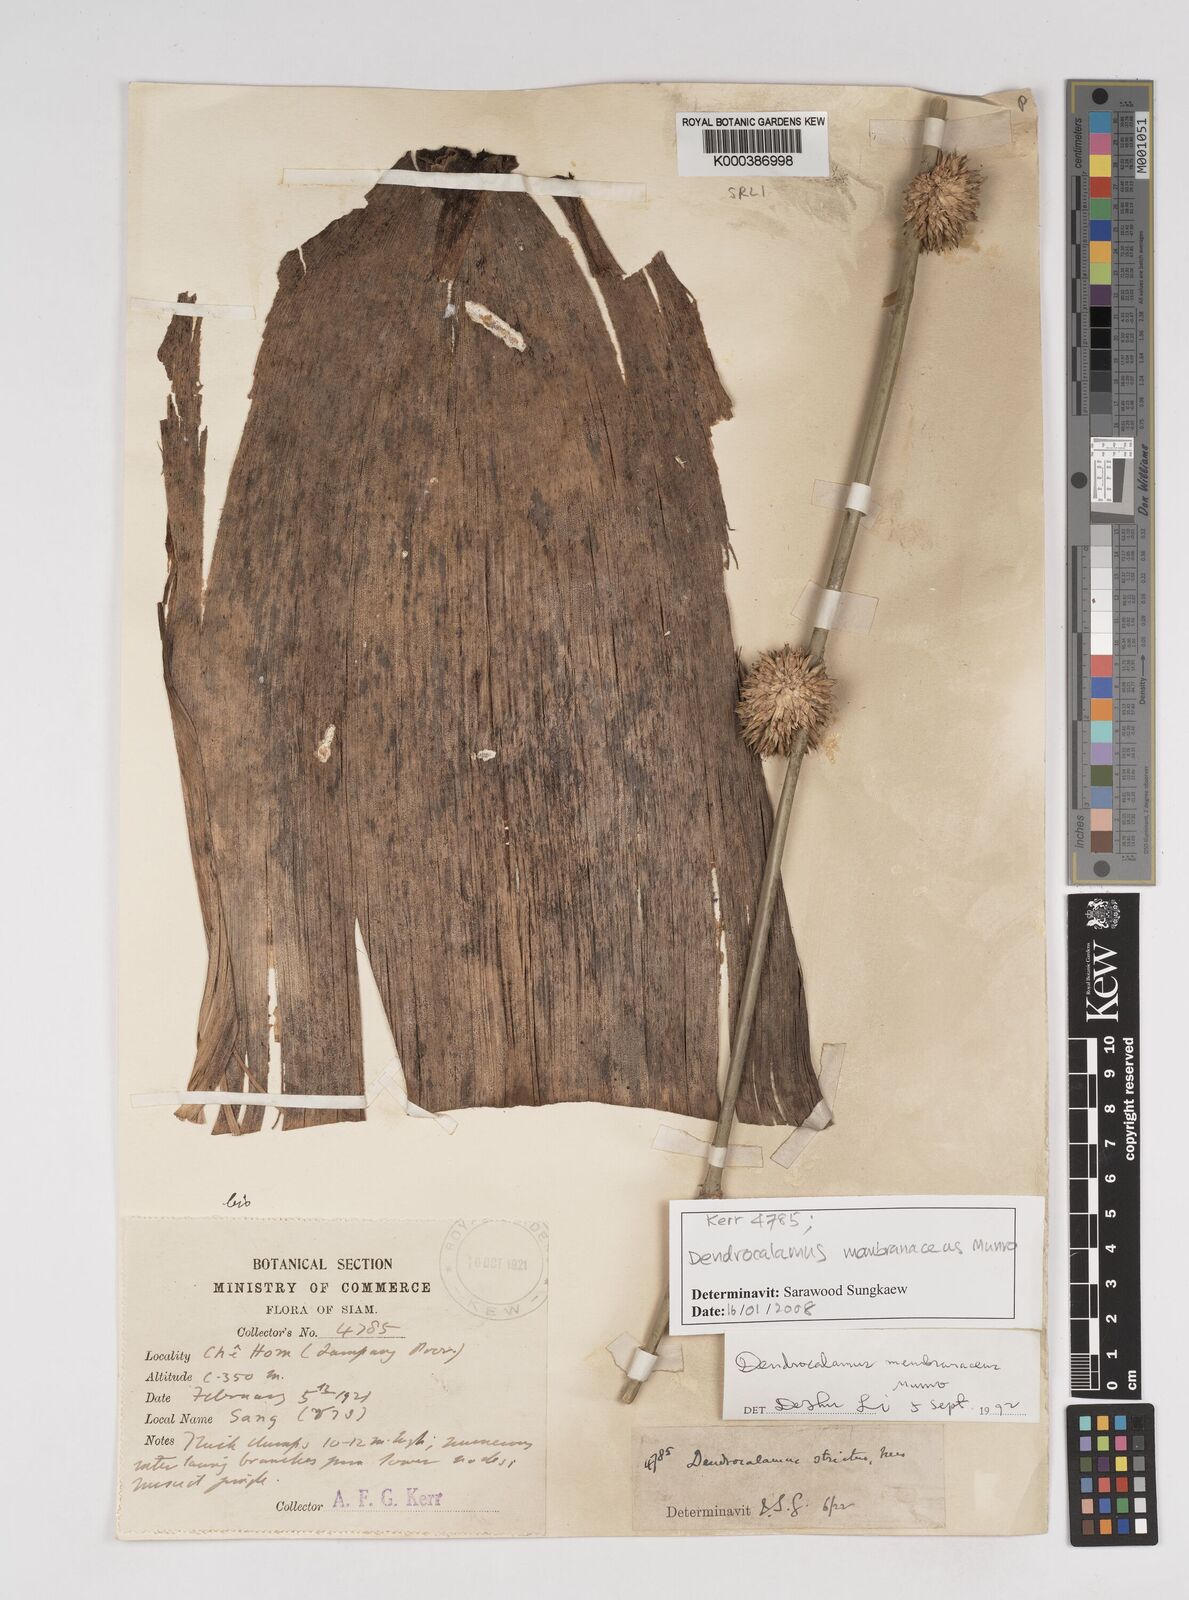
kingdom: Plantae
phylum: Tracheophyta
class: Liliopsida
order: Poales
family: Poaceae
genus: Dendrocalamus
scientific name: Dendrocalamus membranaceus
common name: White bamboo
